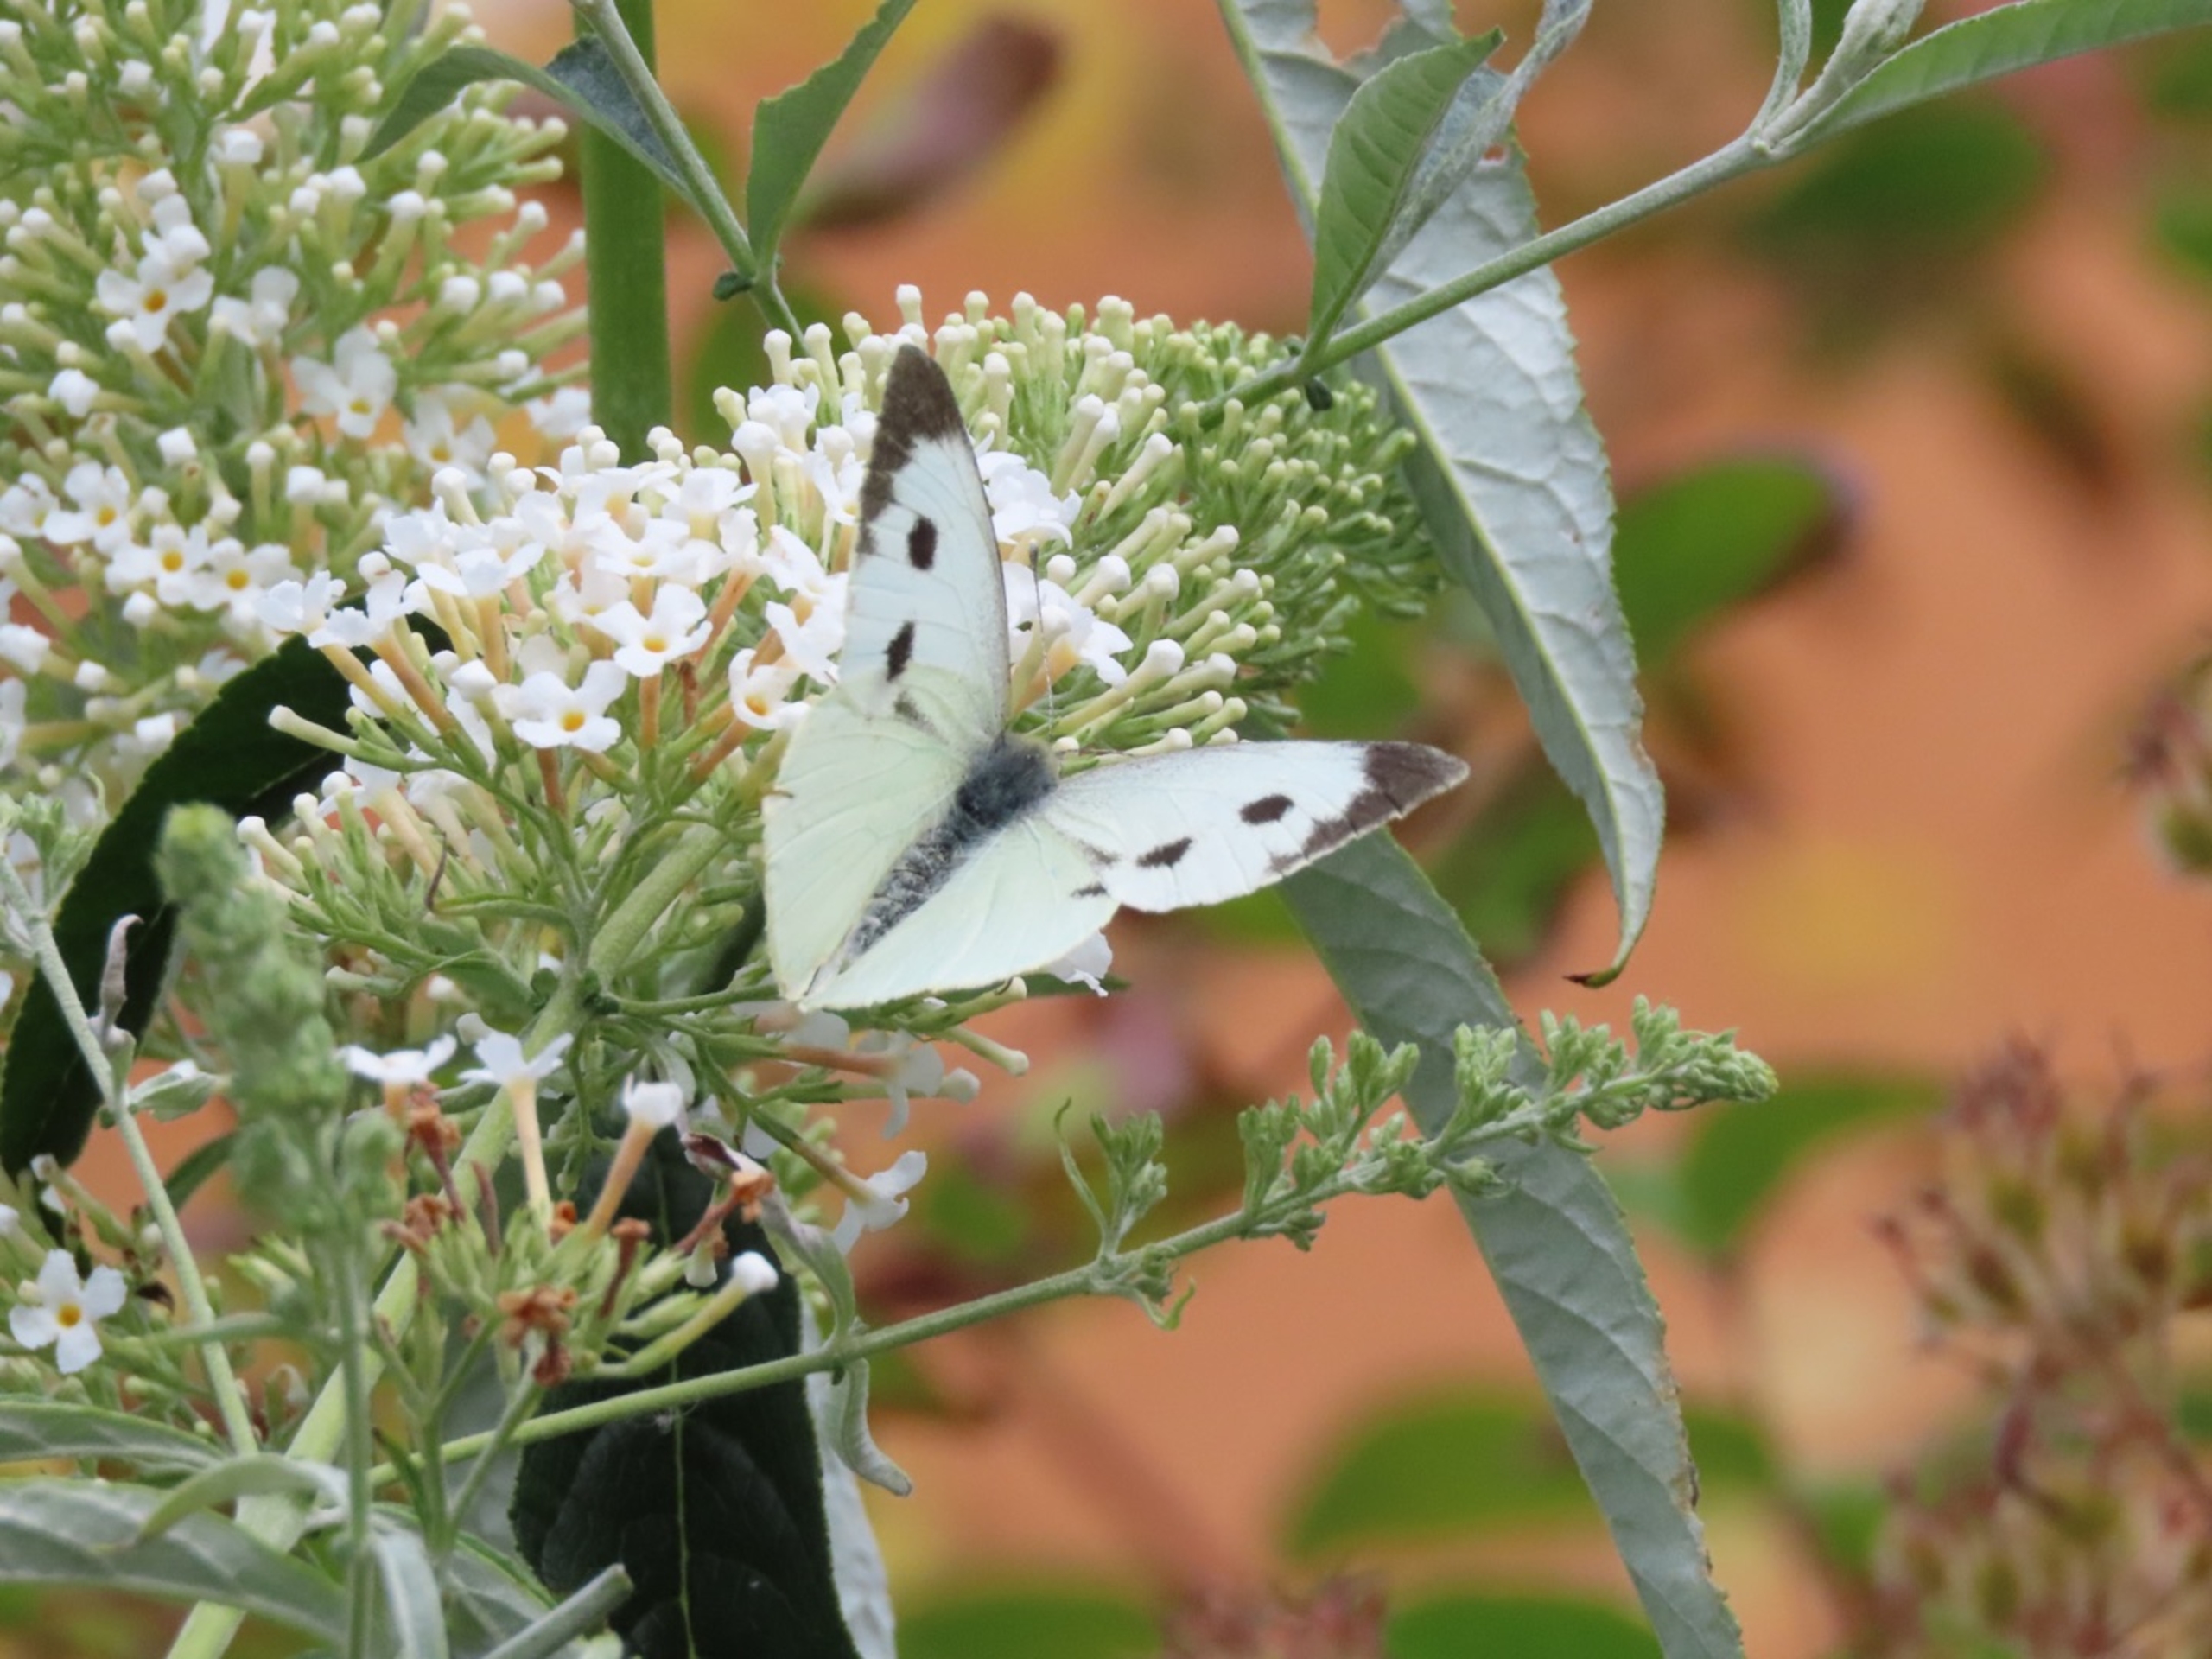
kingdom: Animalia
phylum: Arthropoda
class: Insecta
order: Lepidoptera
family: Pieridae
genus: Pieris
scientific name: Pieris brassicae
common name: Stor kålsommerfugl
